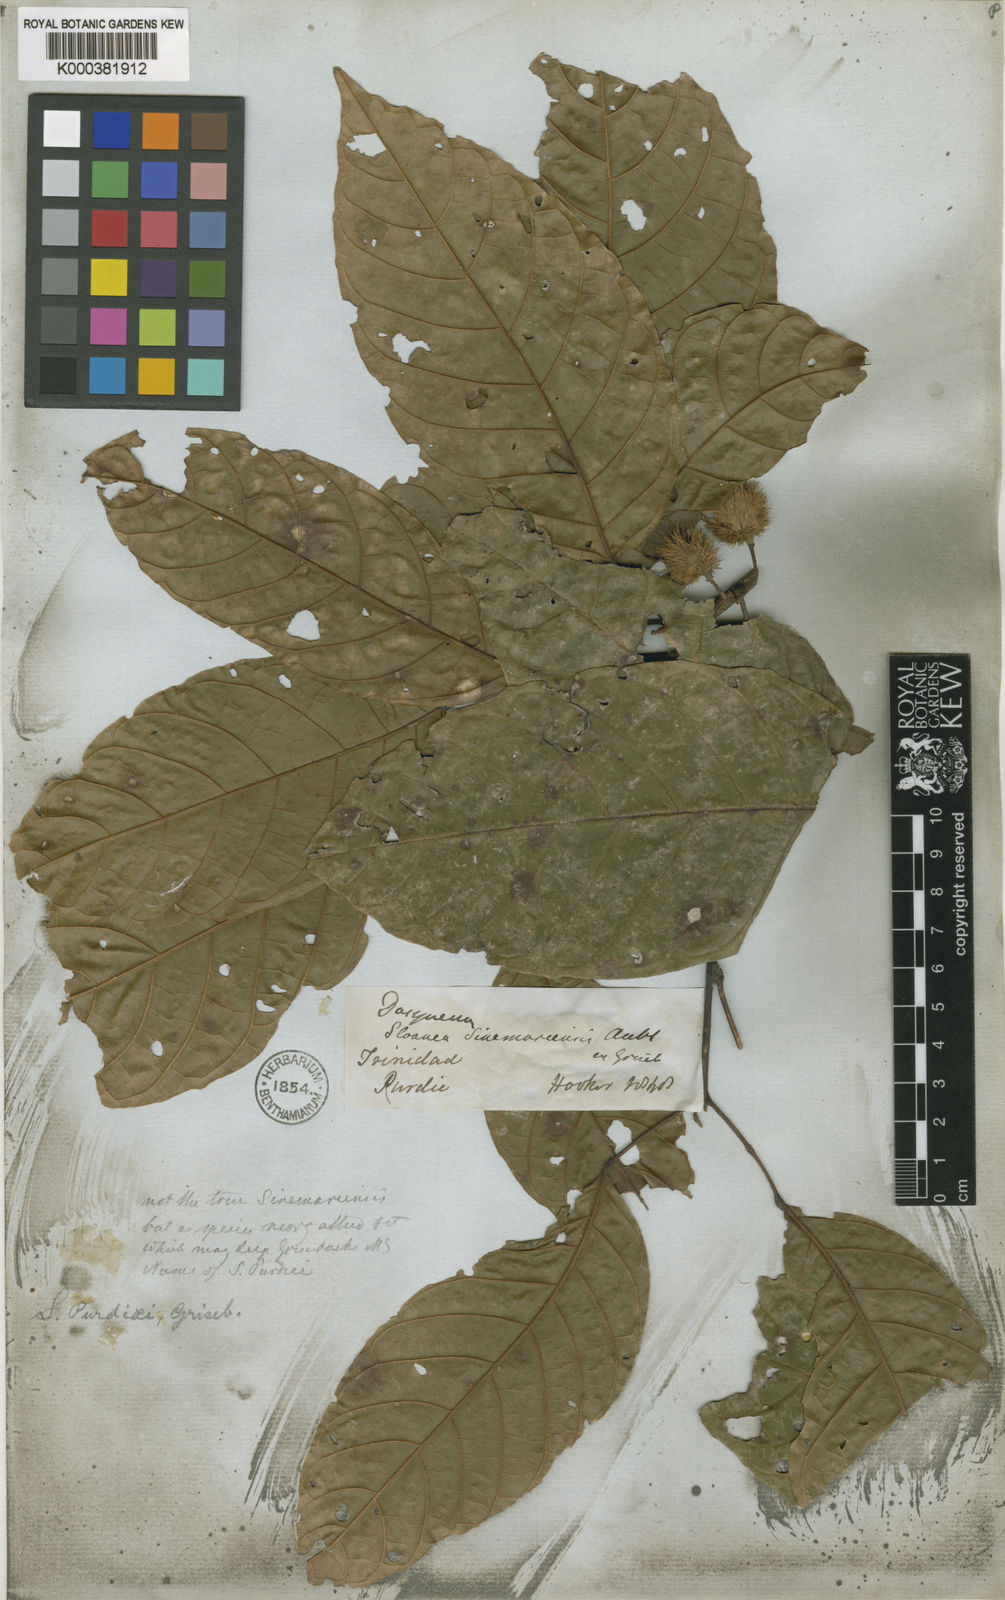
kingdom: Plantae
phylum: Tracheophyta
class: Magnoliopsida
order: Oxalidales
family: Elaeocarpaceae
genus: Sloanea
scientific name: Sloanea guianensis
